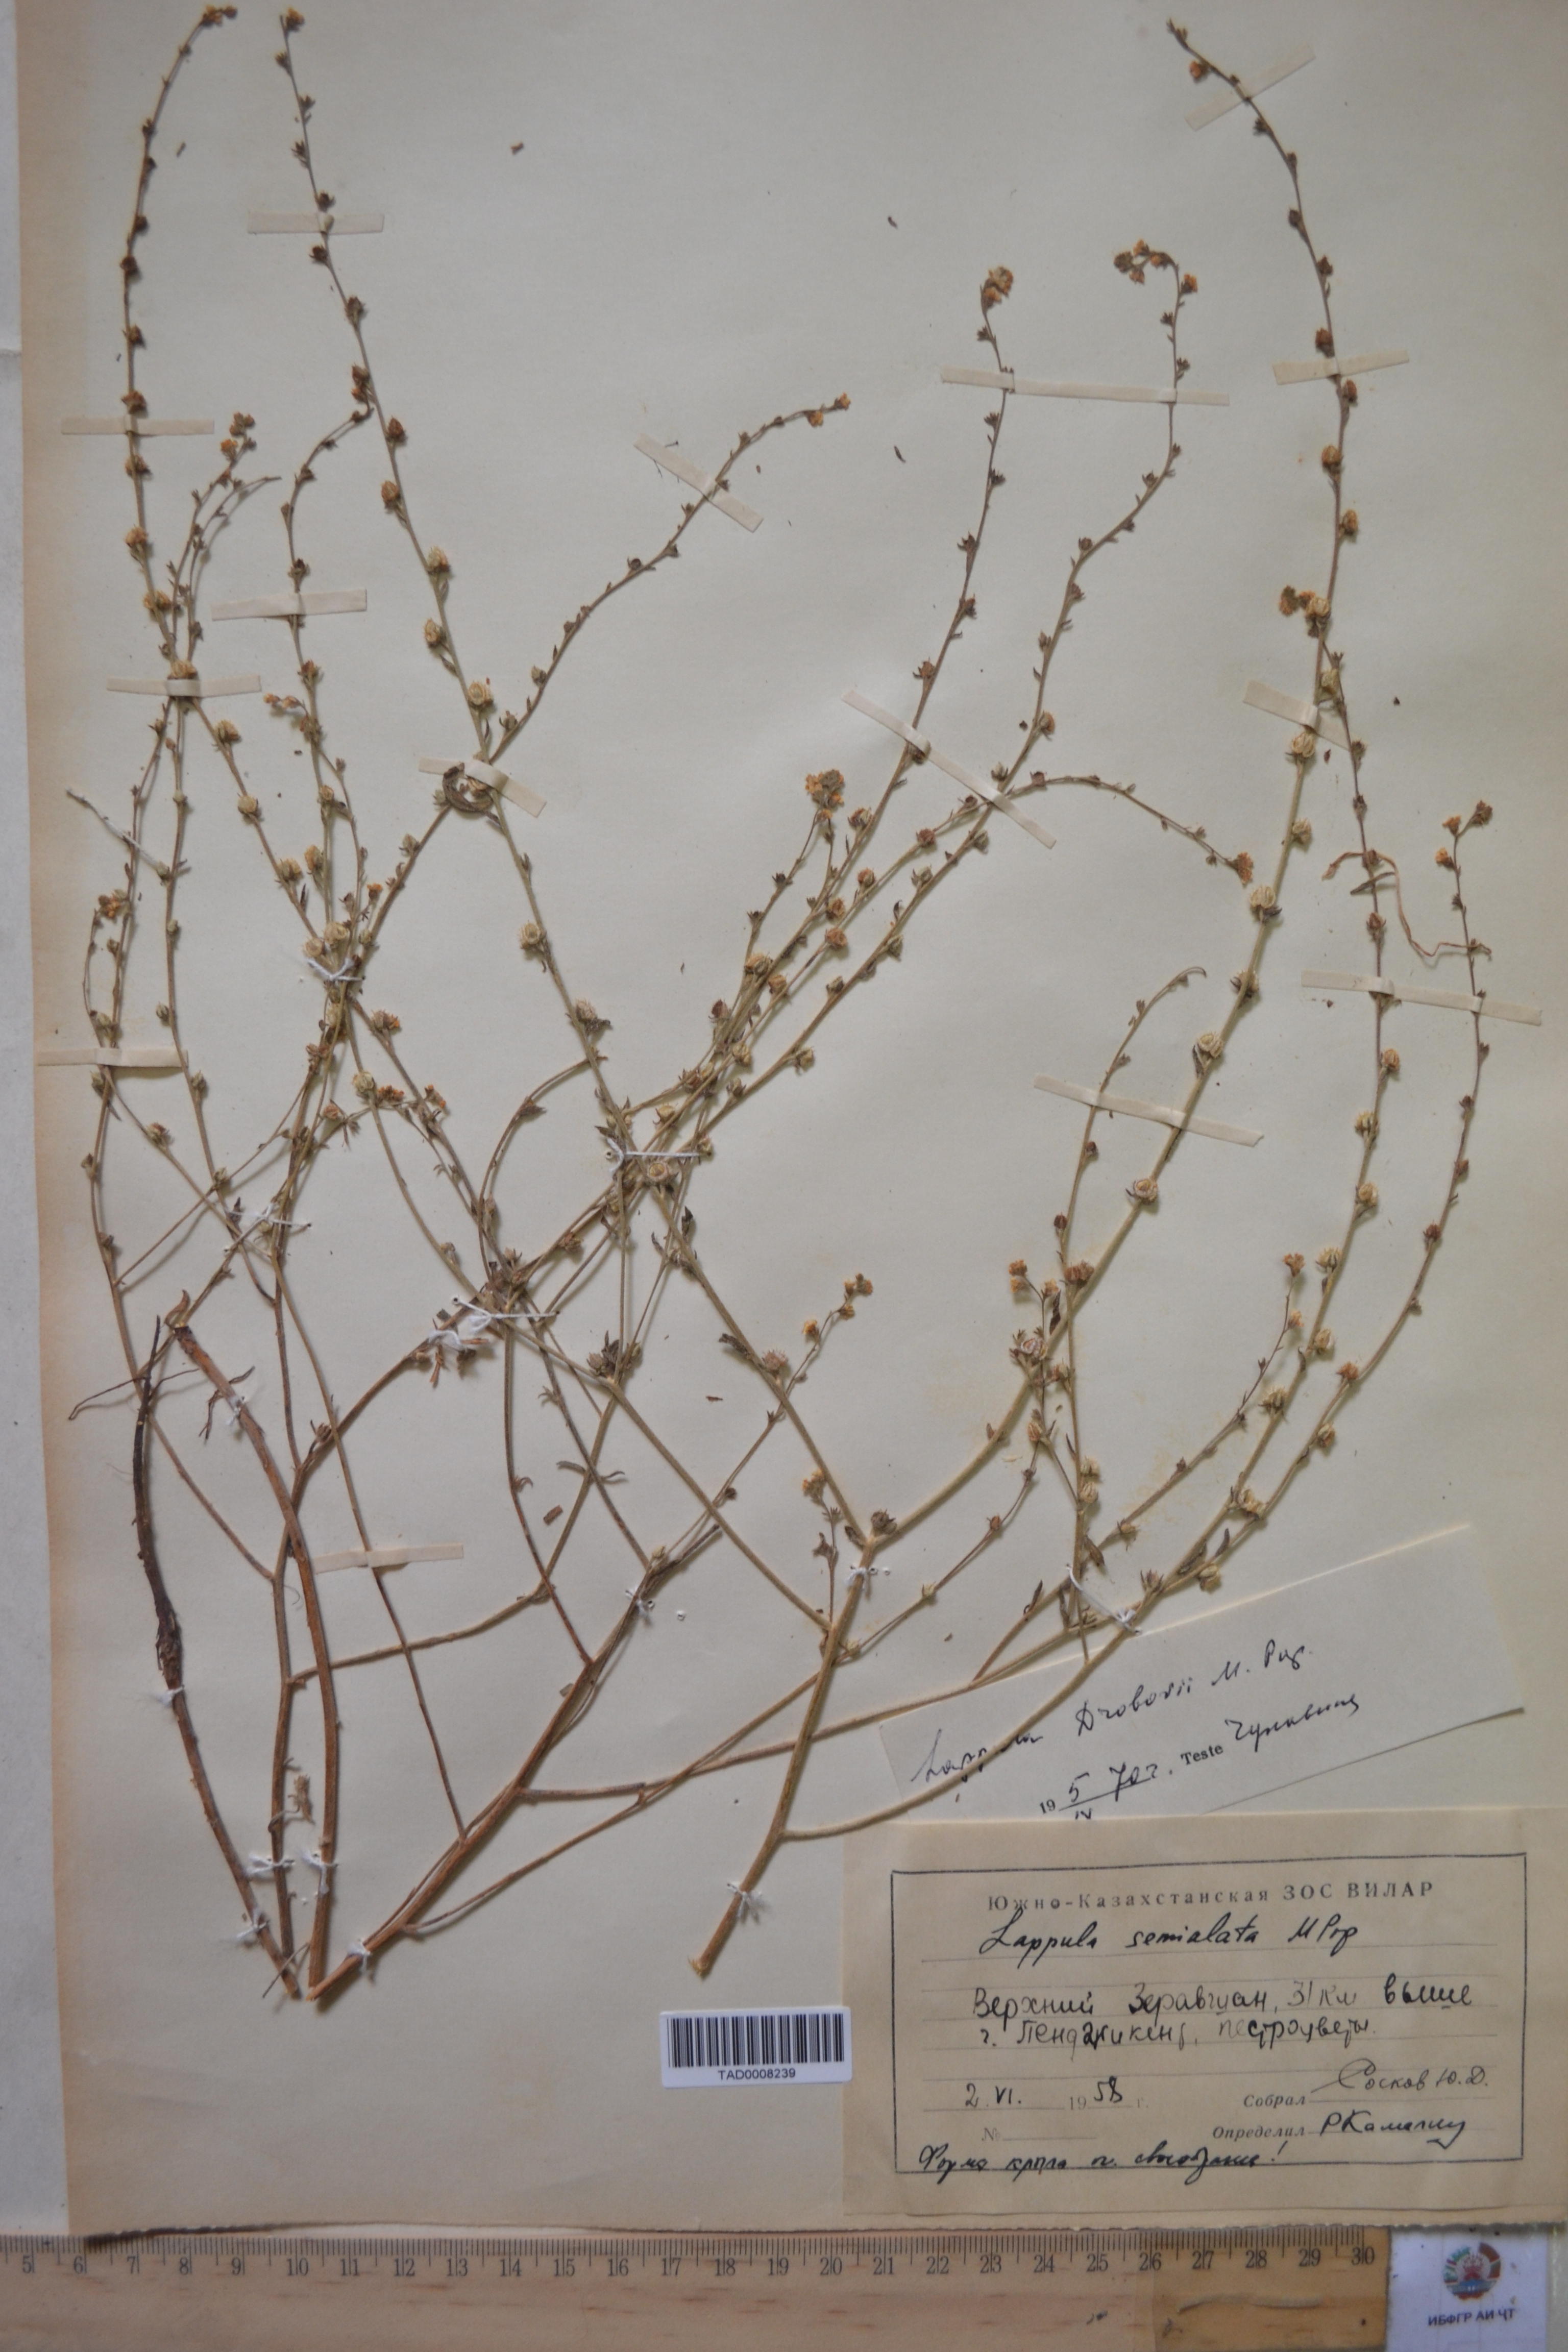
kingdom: Plantae
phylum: Tracheophyta
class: Magnoliopsida
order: Boraginales
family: Boraginaceae
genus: Lappula
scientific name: Lappula semialata
